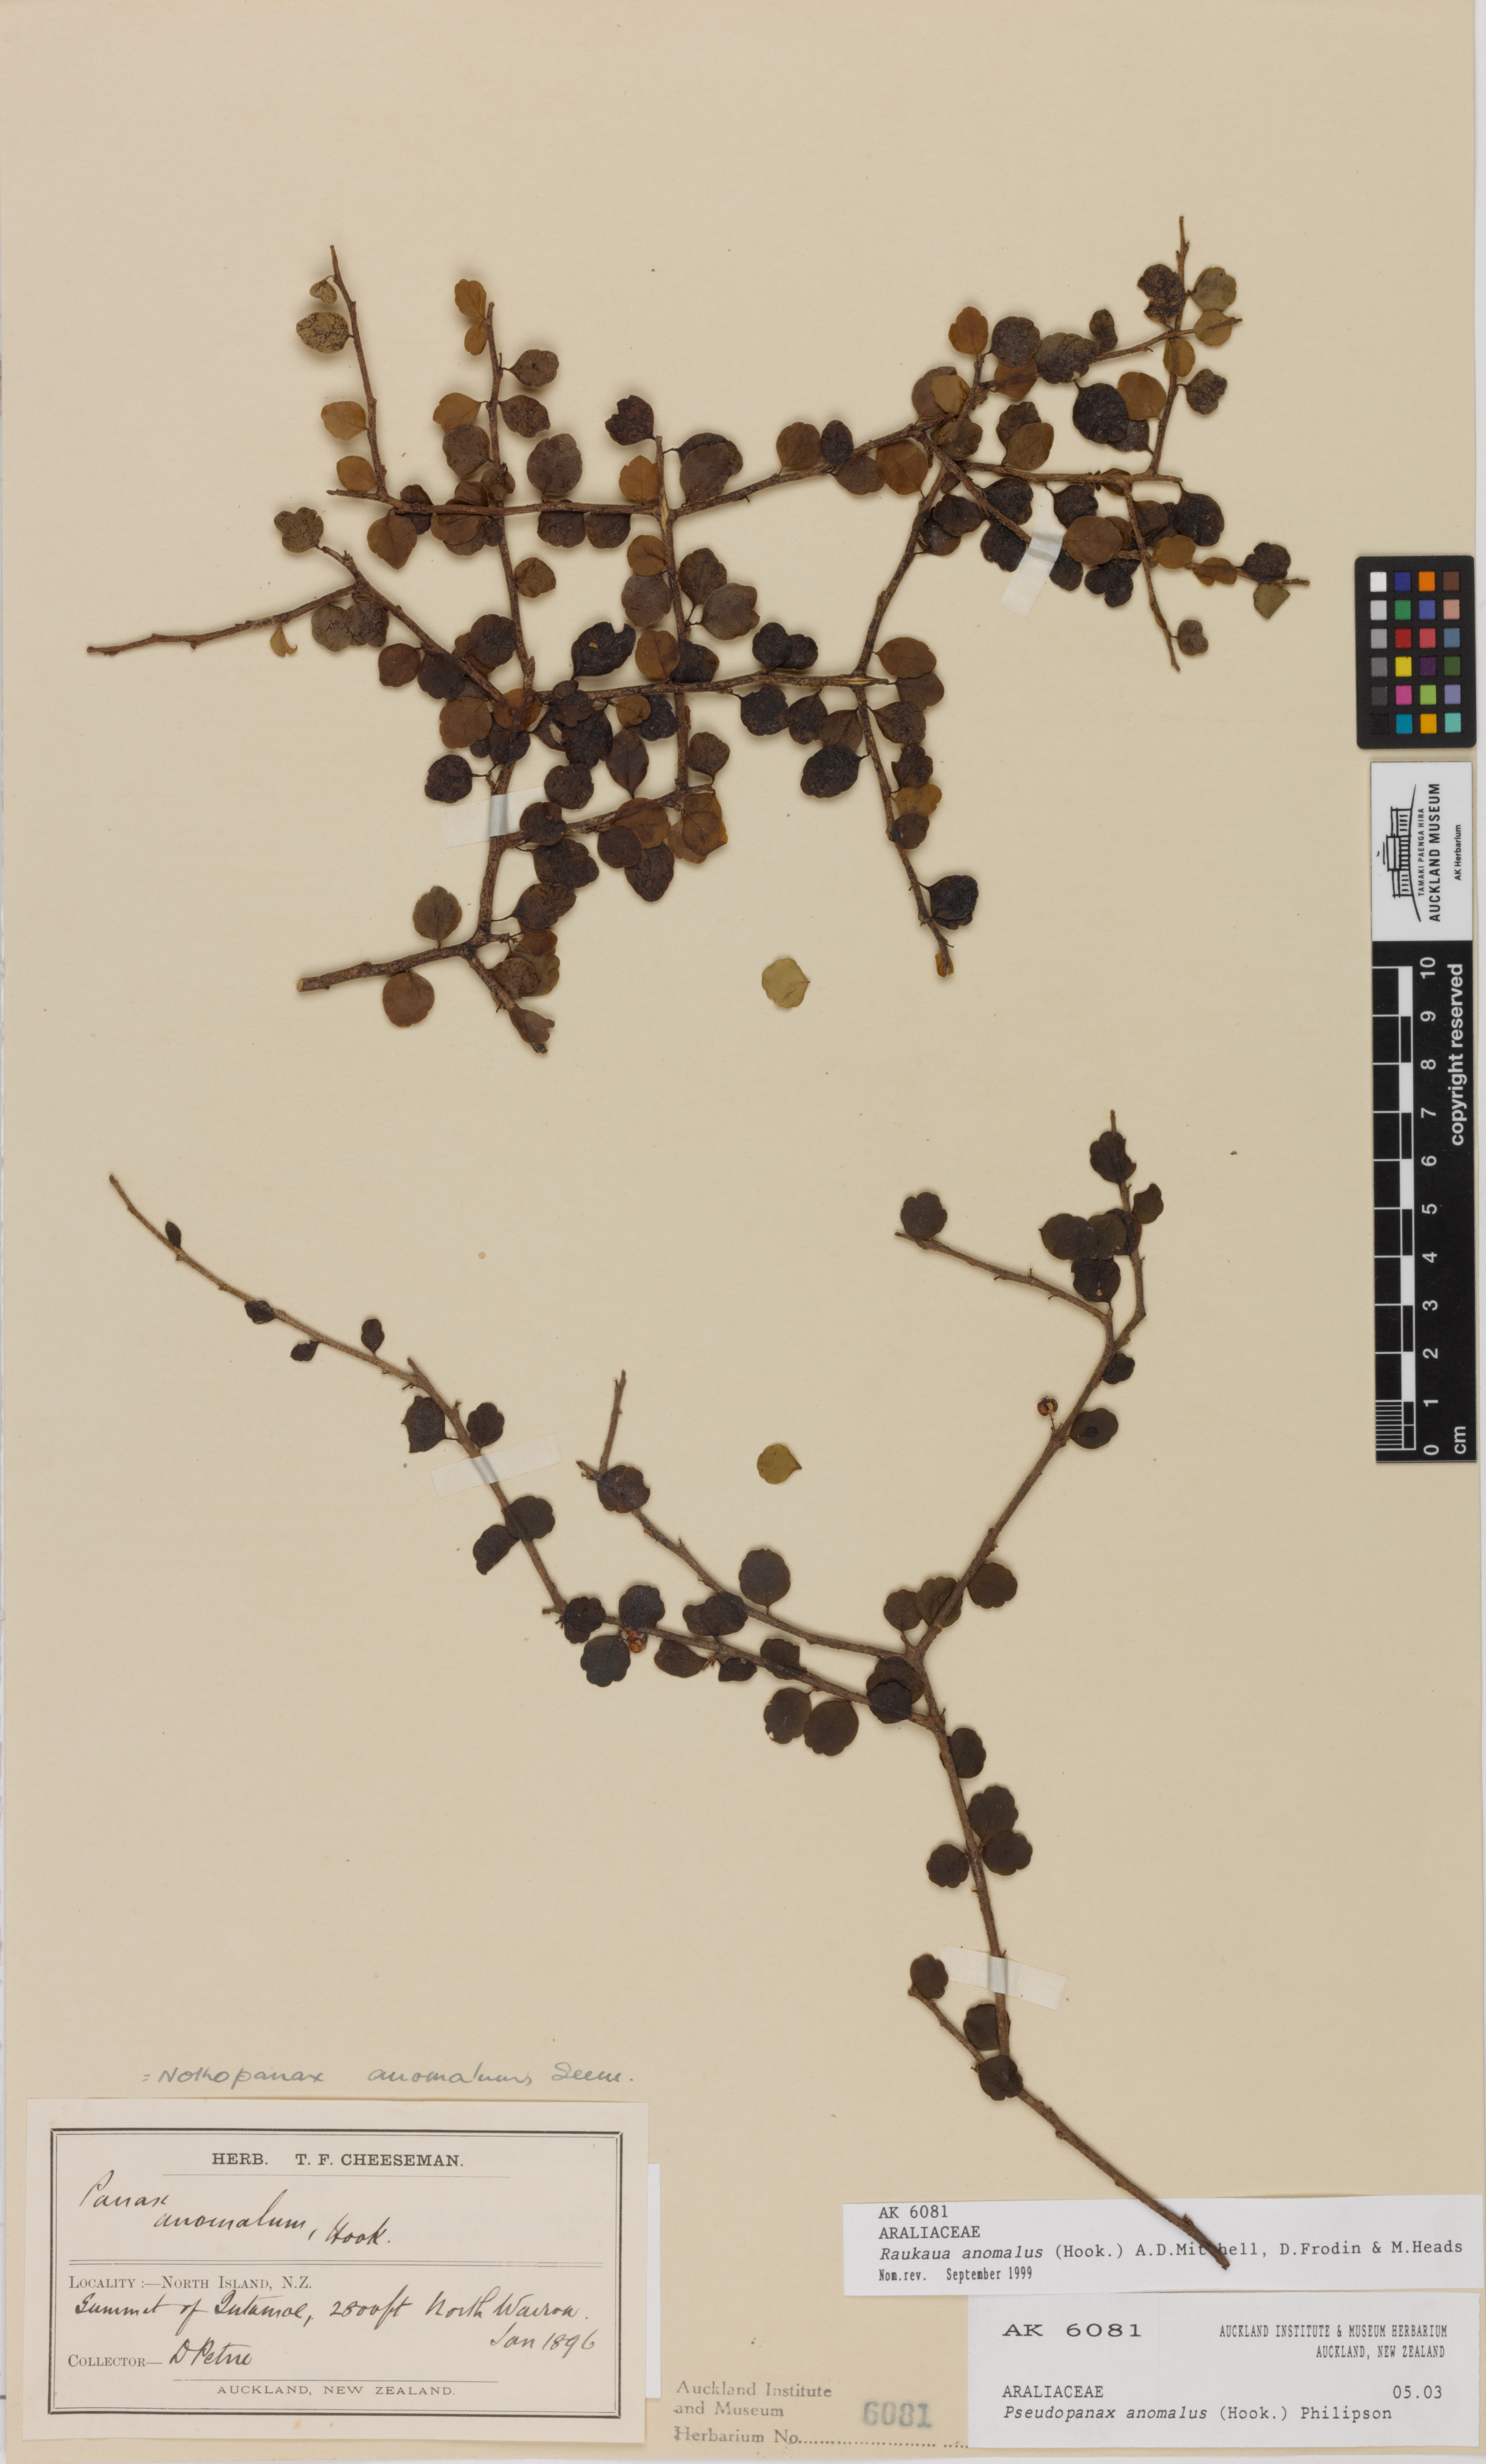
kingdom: Plantae
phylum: Tracheophyta
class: Magnoliopsida
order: Apiales
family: Araliaceae
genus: Raukaua
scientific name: Raukaua anomalus
